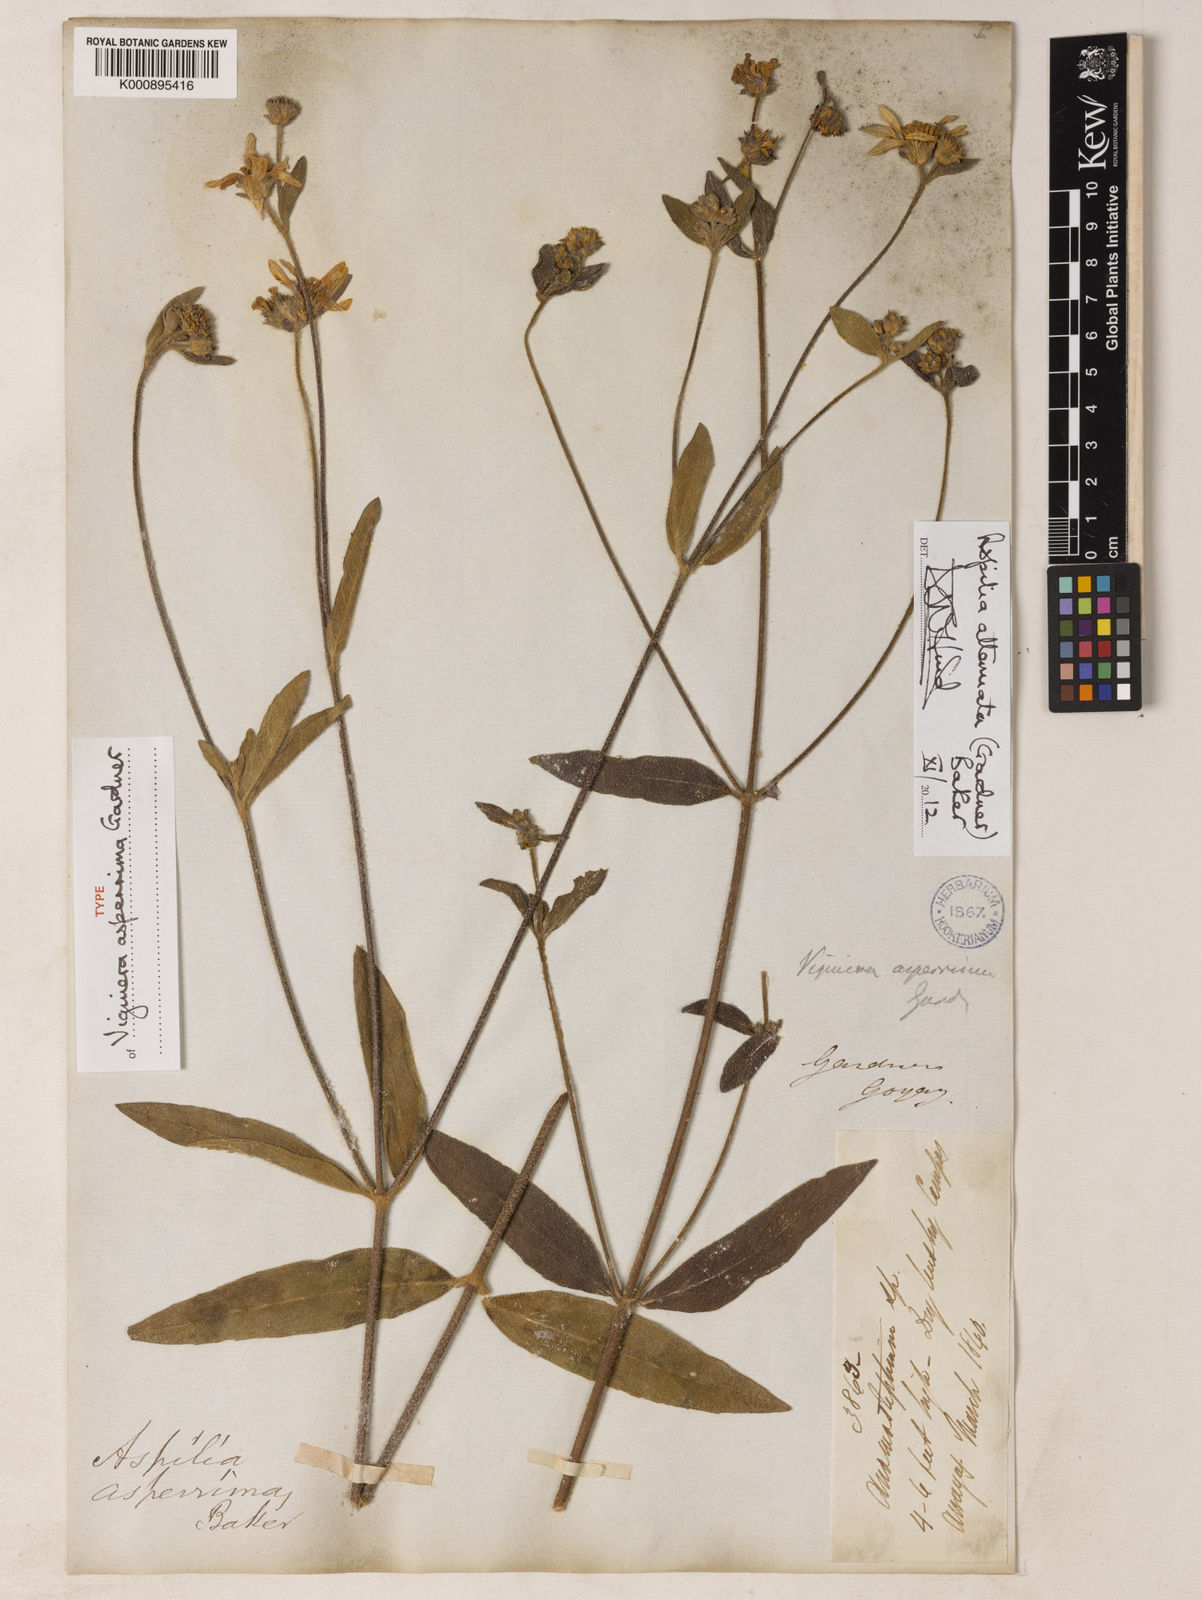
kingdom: Plantae
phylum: Tracheophyta
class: Magnoliopsida
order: Asterales
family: Asteraceae
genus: Wedelia
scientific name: Wedelia attenuata
